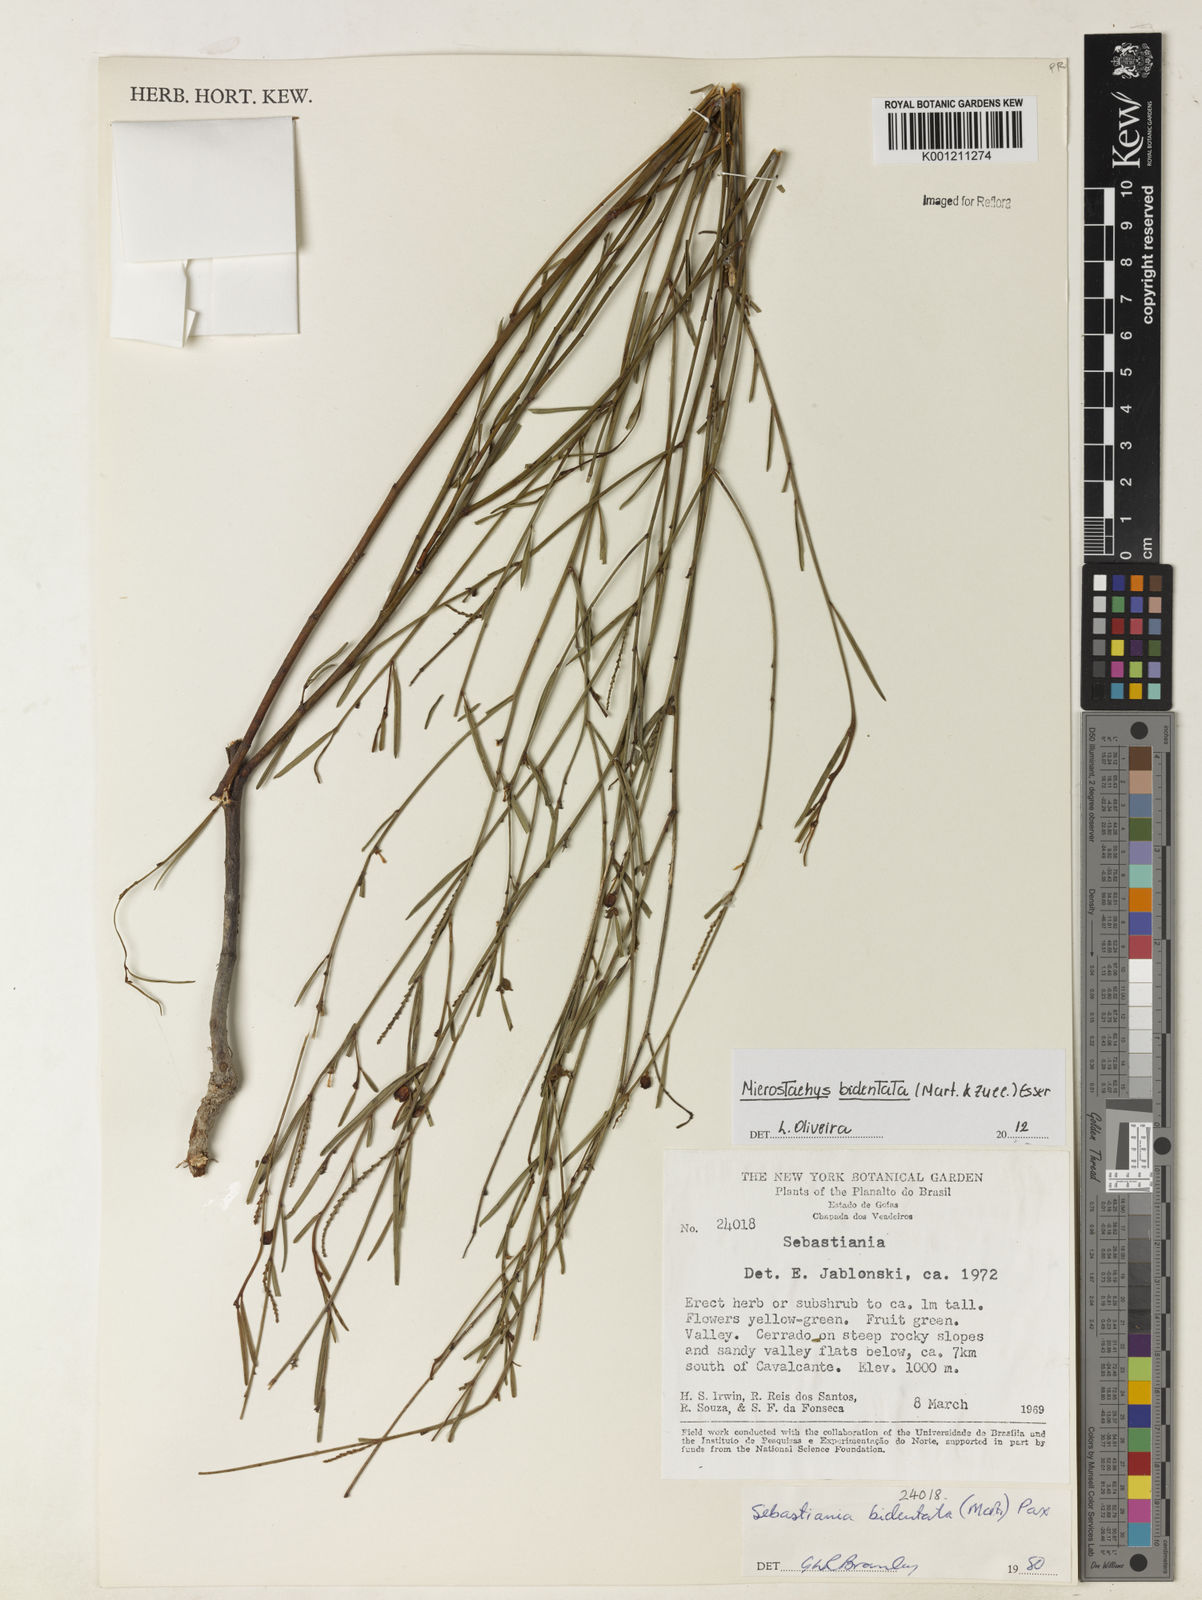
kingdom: Plantae
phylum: Tracheophyta
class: Magnoliopsida
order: Malpighiales
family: Euphorbiaceae
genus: Microstachys
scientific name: Microstachys bidentata
